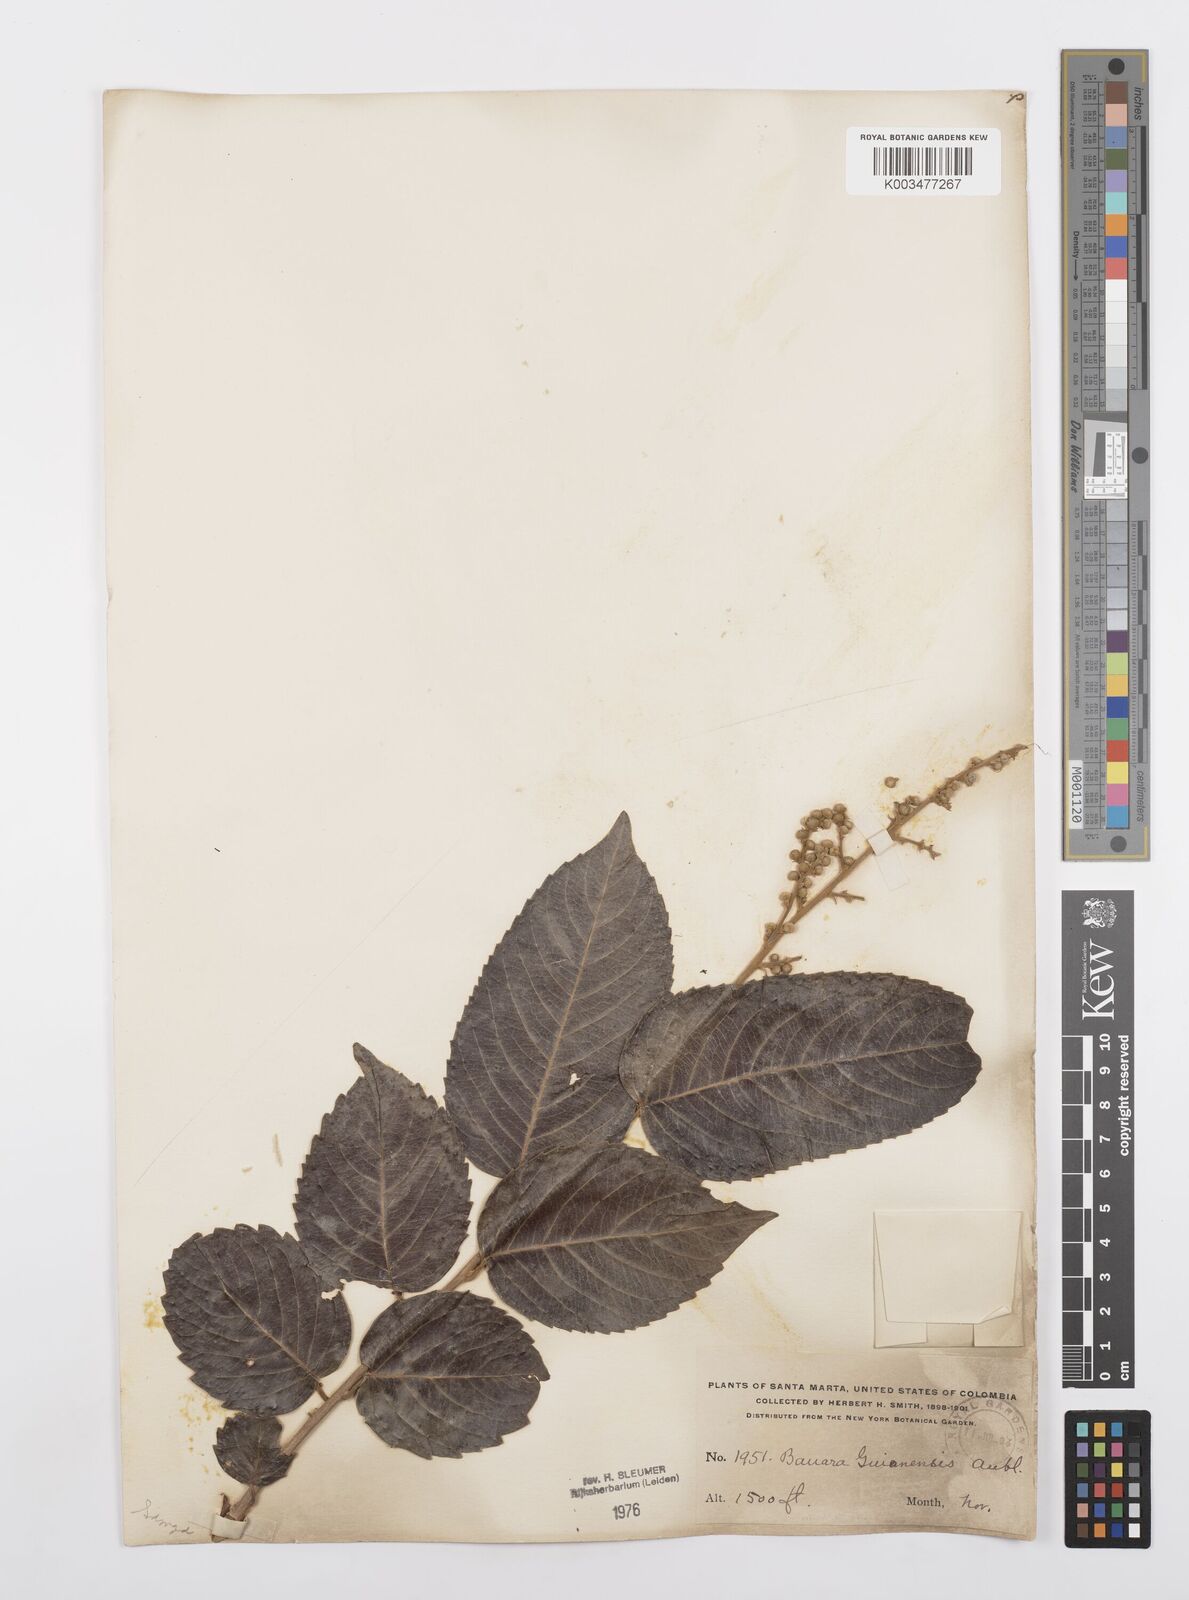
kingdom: Plantae
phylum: Tracheophyta
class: Magnoliopsida
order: Malpighiales
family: Salicaceae
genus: Banara
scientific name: Banara guianensis
